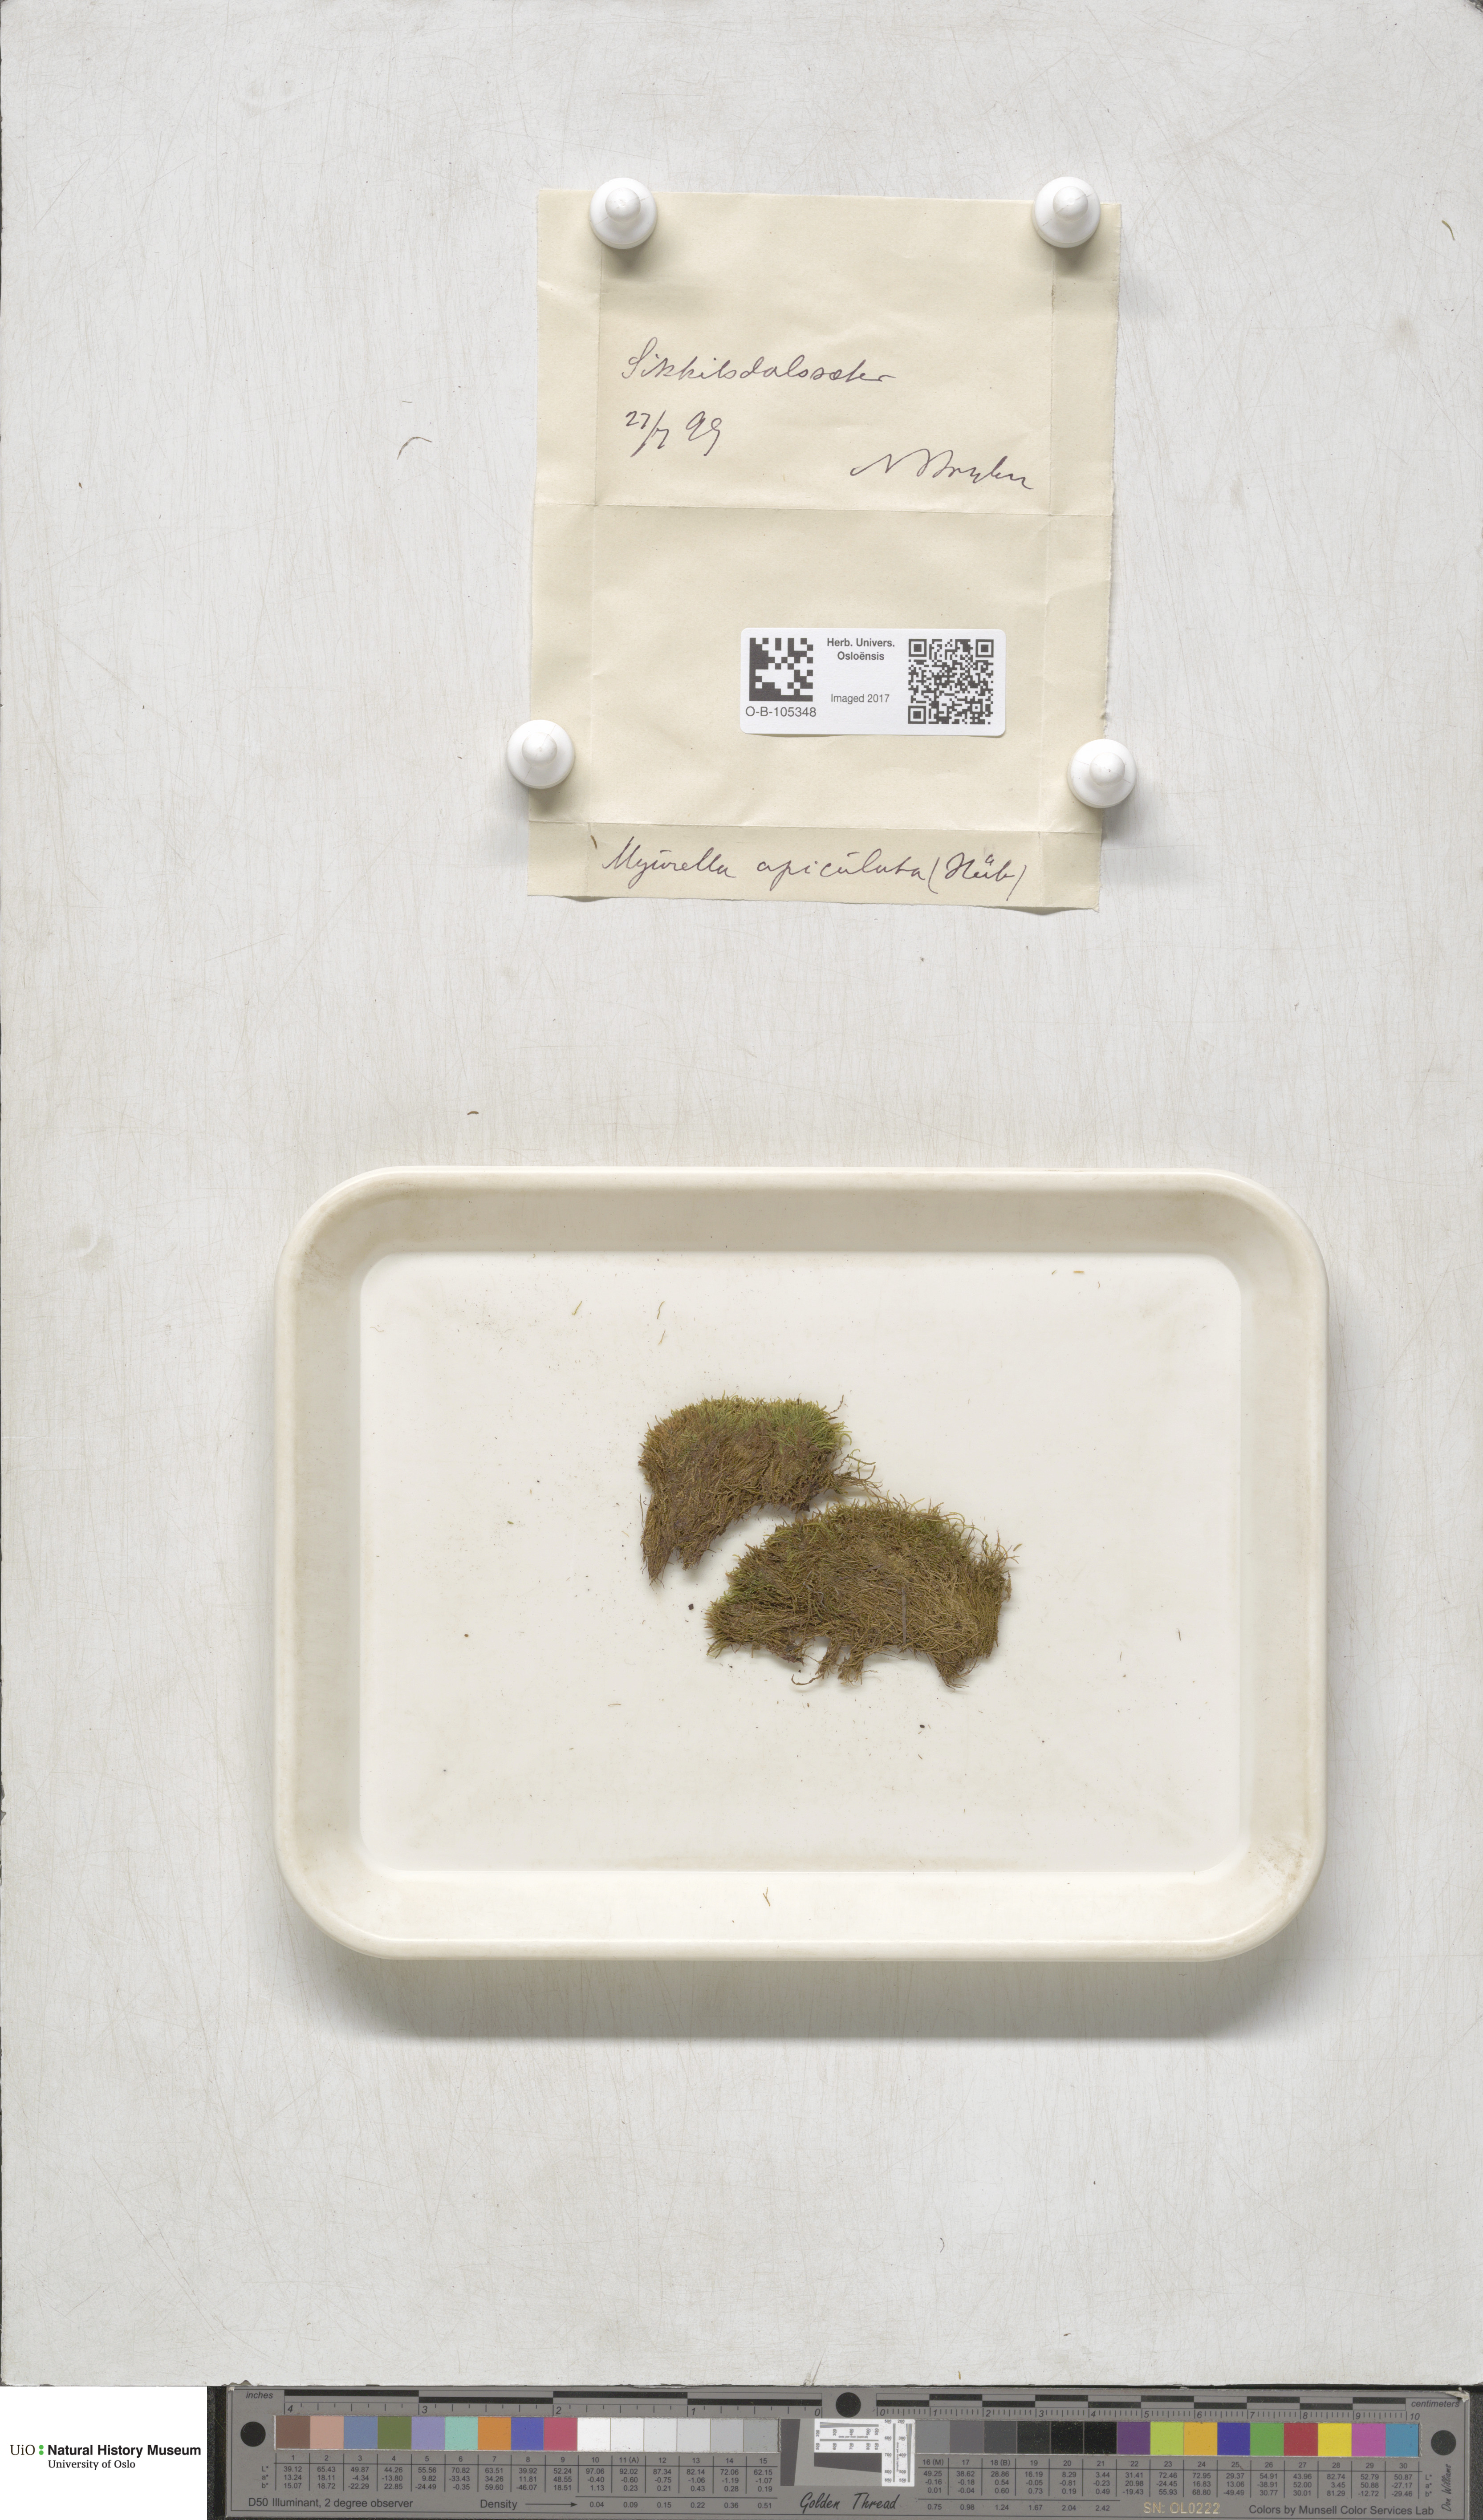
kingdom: Plantae
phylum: Bryophyta
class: Bryopsida
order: Hypnales
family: Plagiotheciaceae
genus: Myurella
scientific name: Myurella tenerrima
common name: Dwarf mousetail moss
